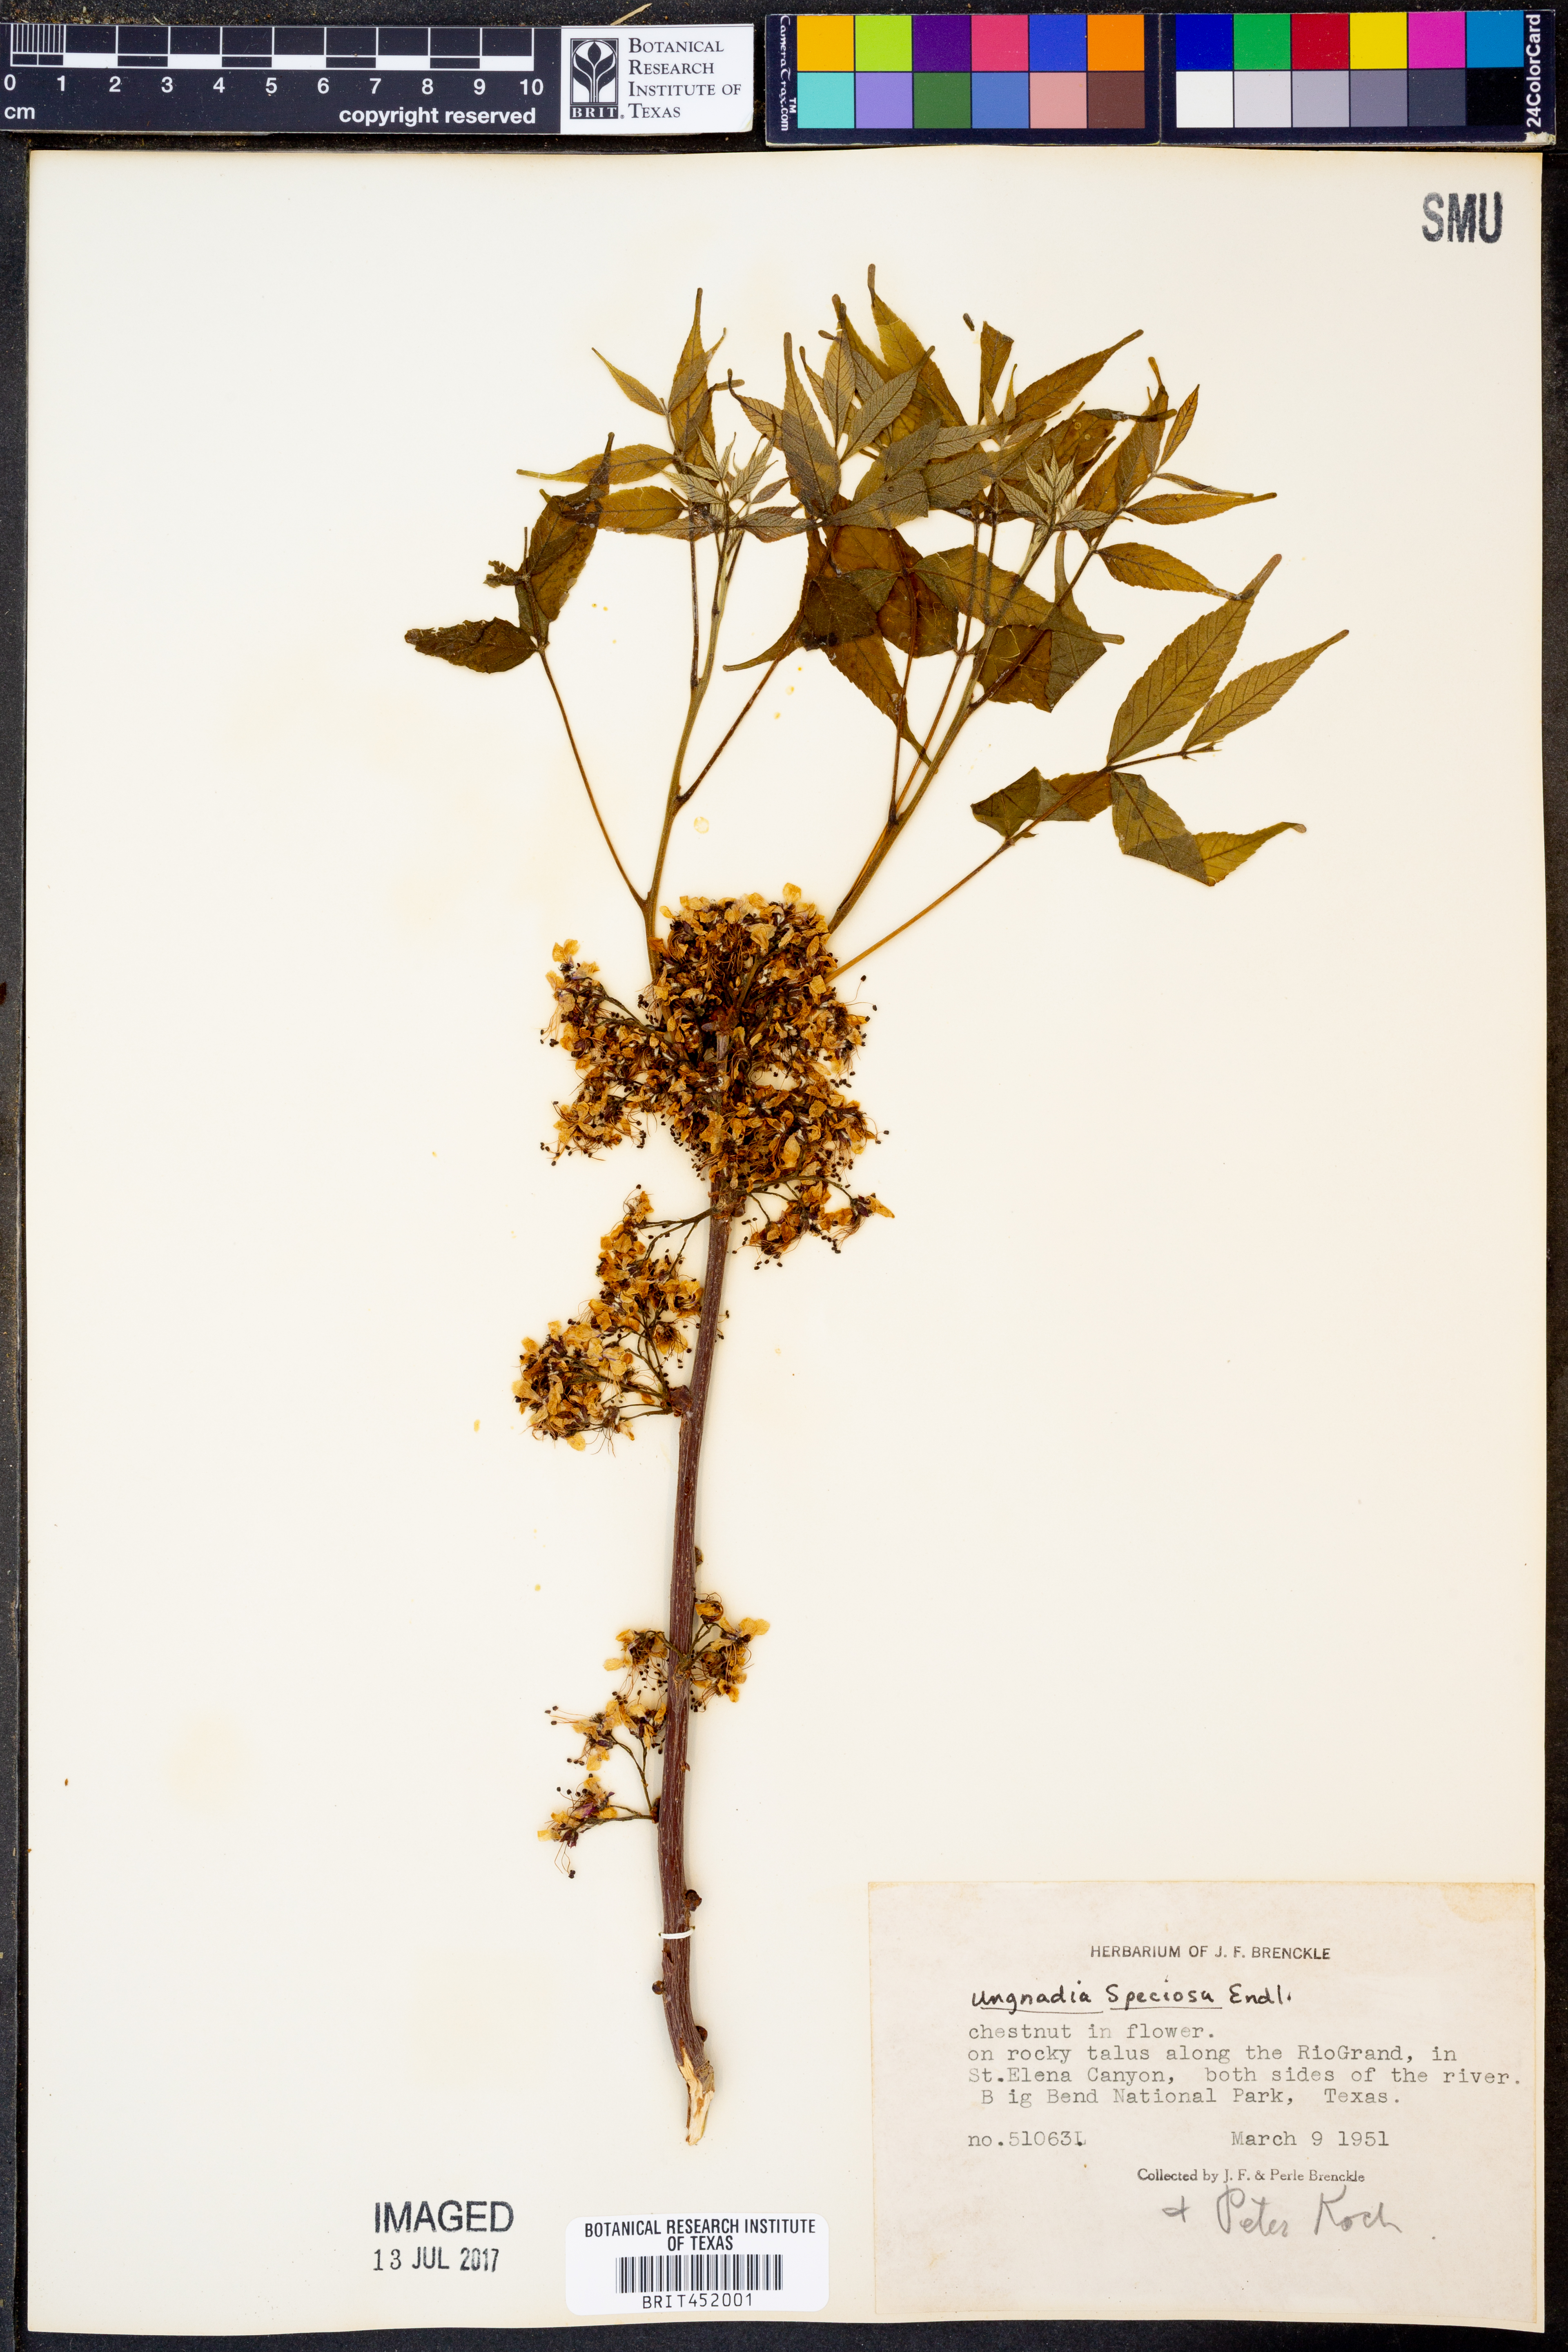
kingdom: Plantae
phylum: Tracheophyta
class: Magnoliopsida
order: Sapindales
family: Sapindaceae
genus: Ungnadia
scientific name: Ungnadia speciosa
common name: Texas-buckeye
